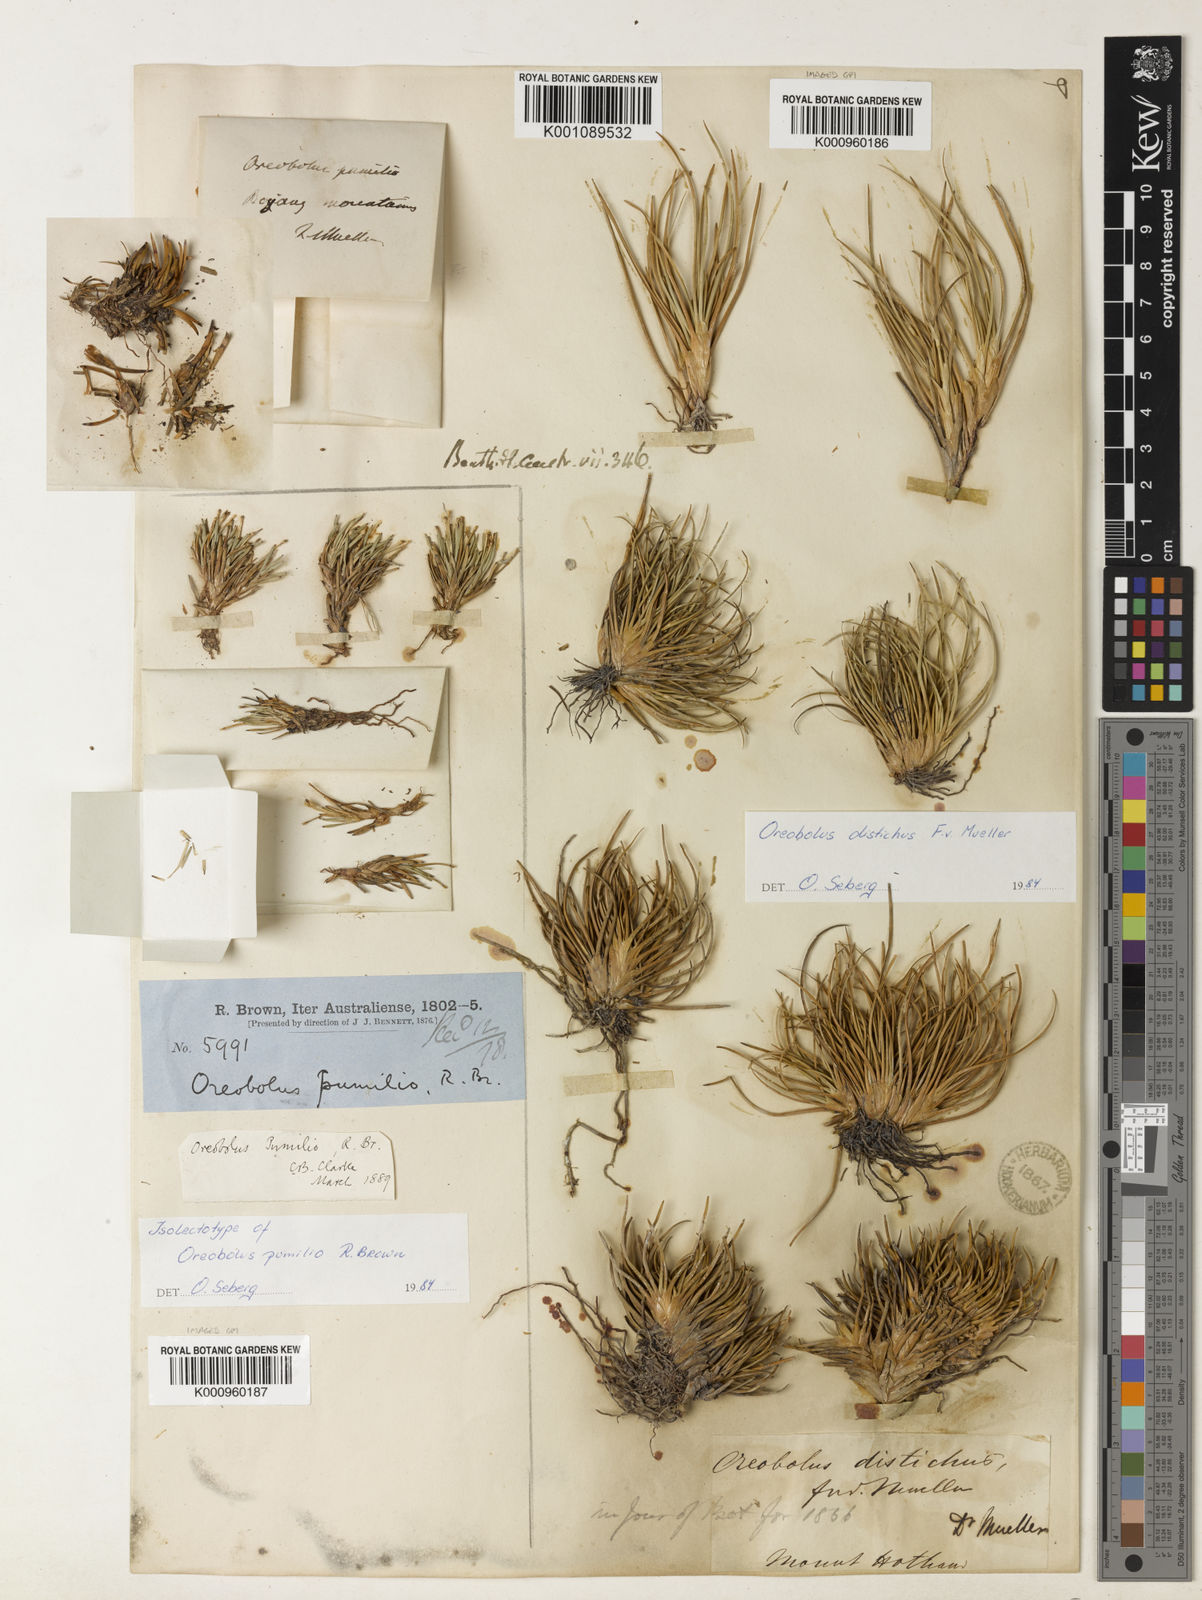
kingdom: Plantae
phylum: Tracheophyta
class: Liliopsida
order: Poales
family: Cyperaceae
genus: Oreobolus
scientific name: Oreobolus pumilio
